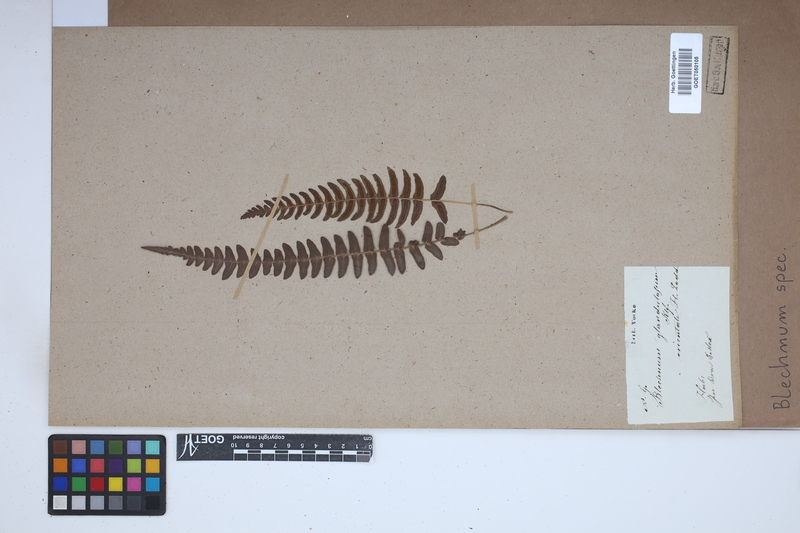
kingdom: Plantae
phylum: Tracheophyta
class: Polypodiopsida
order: Polypodiales
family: Blechnaceae
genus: Blechnum
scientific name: Blechnum
